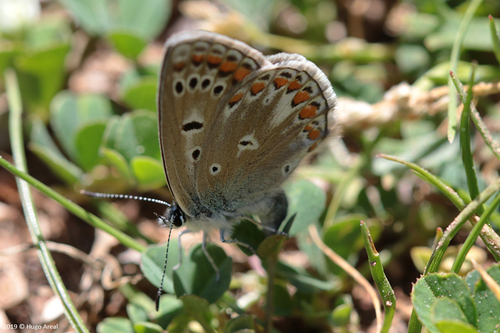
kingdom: Animalia
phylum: Arthropoda
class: Insecta
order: Lepidoptera
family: Lycaenidae
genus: Polyommatus
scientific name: Polyommatus icarus
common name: Common blue
